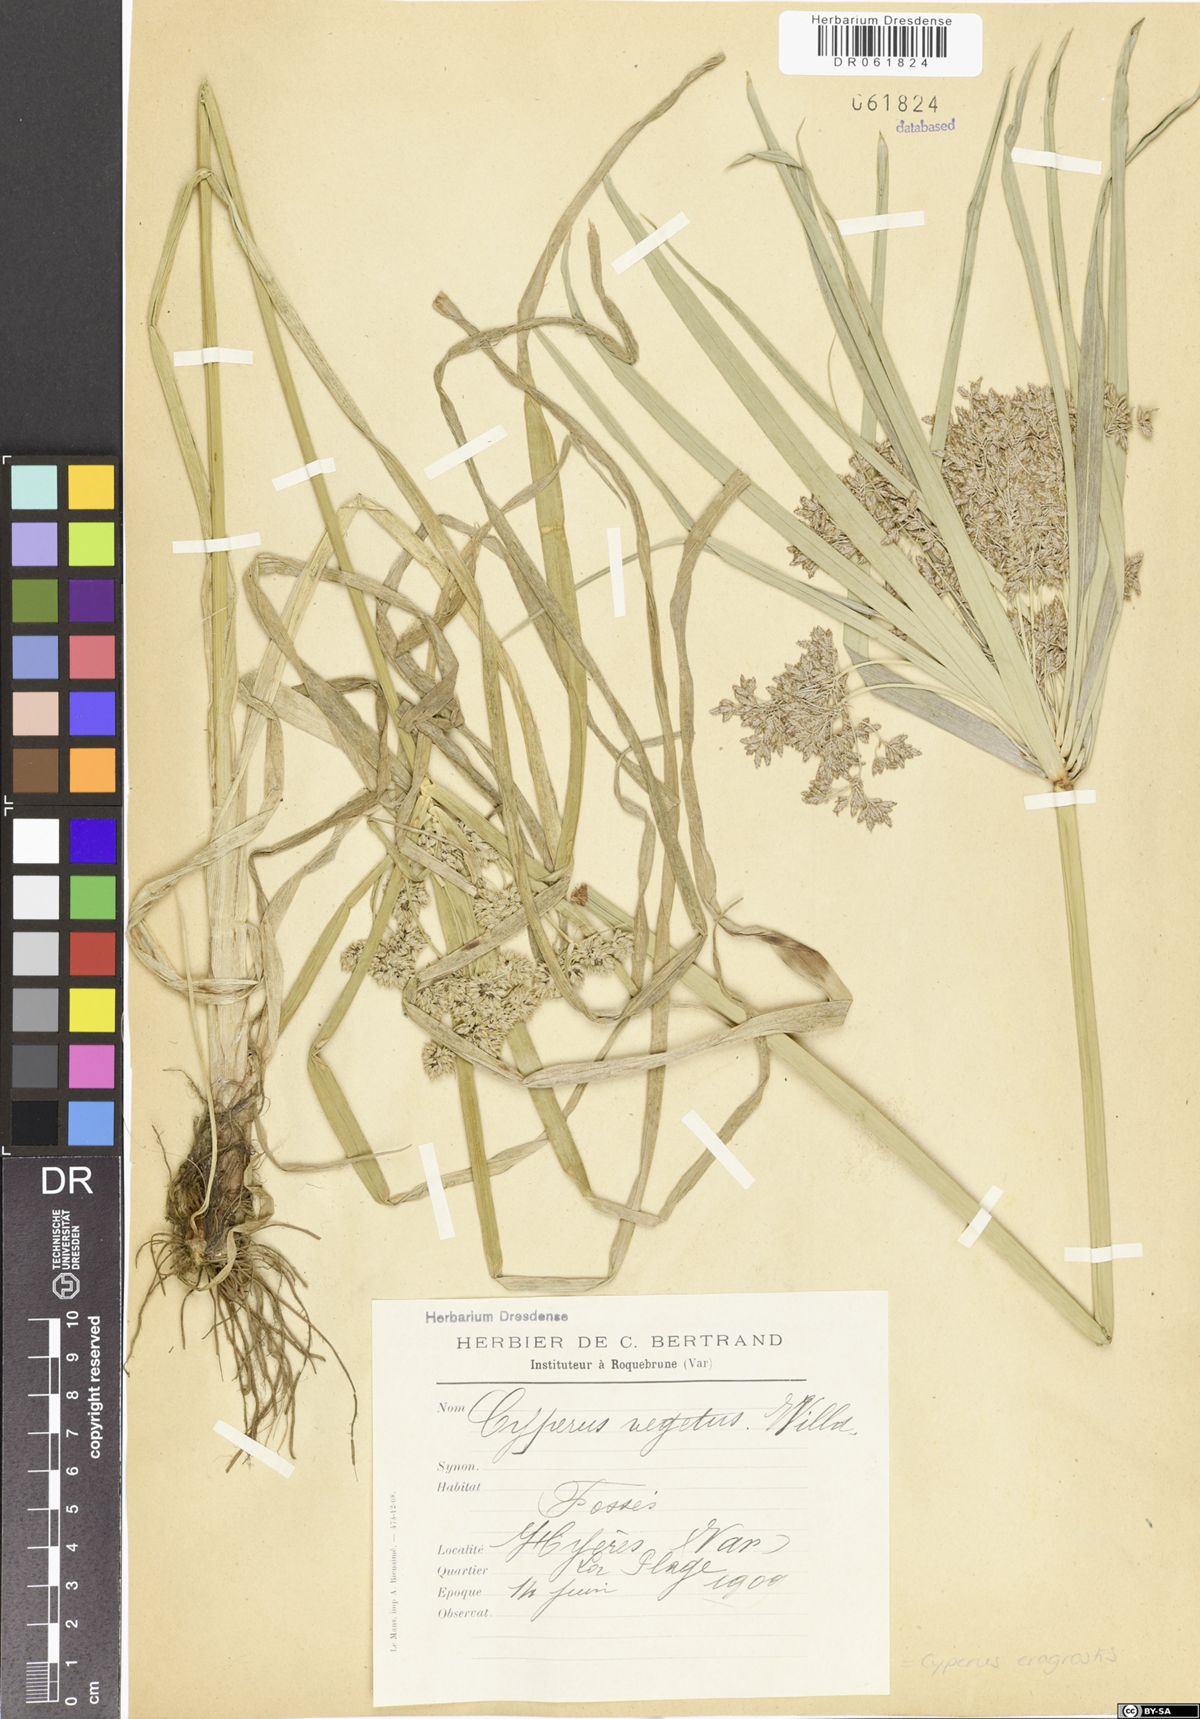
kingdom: Plantae
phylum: Tracheophyta
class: Liliopsida
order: Poales
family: Cyperaceae
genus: Cyperus
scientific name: Cyperus eragrostis
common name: Tall flatsedge
